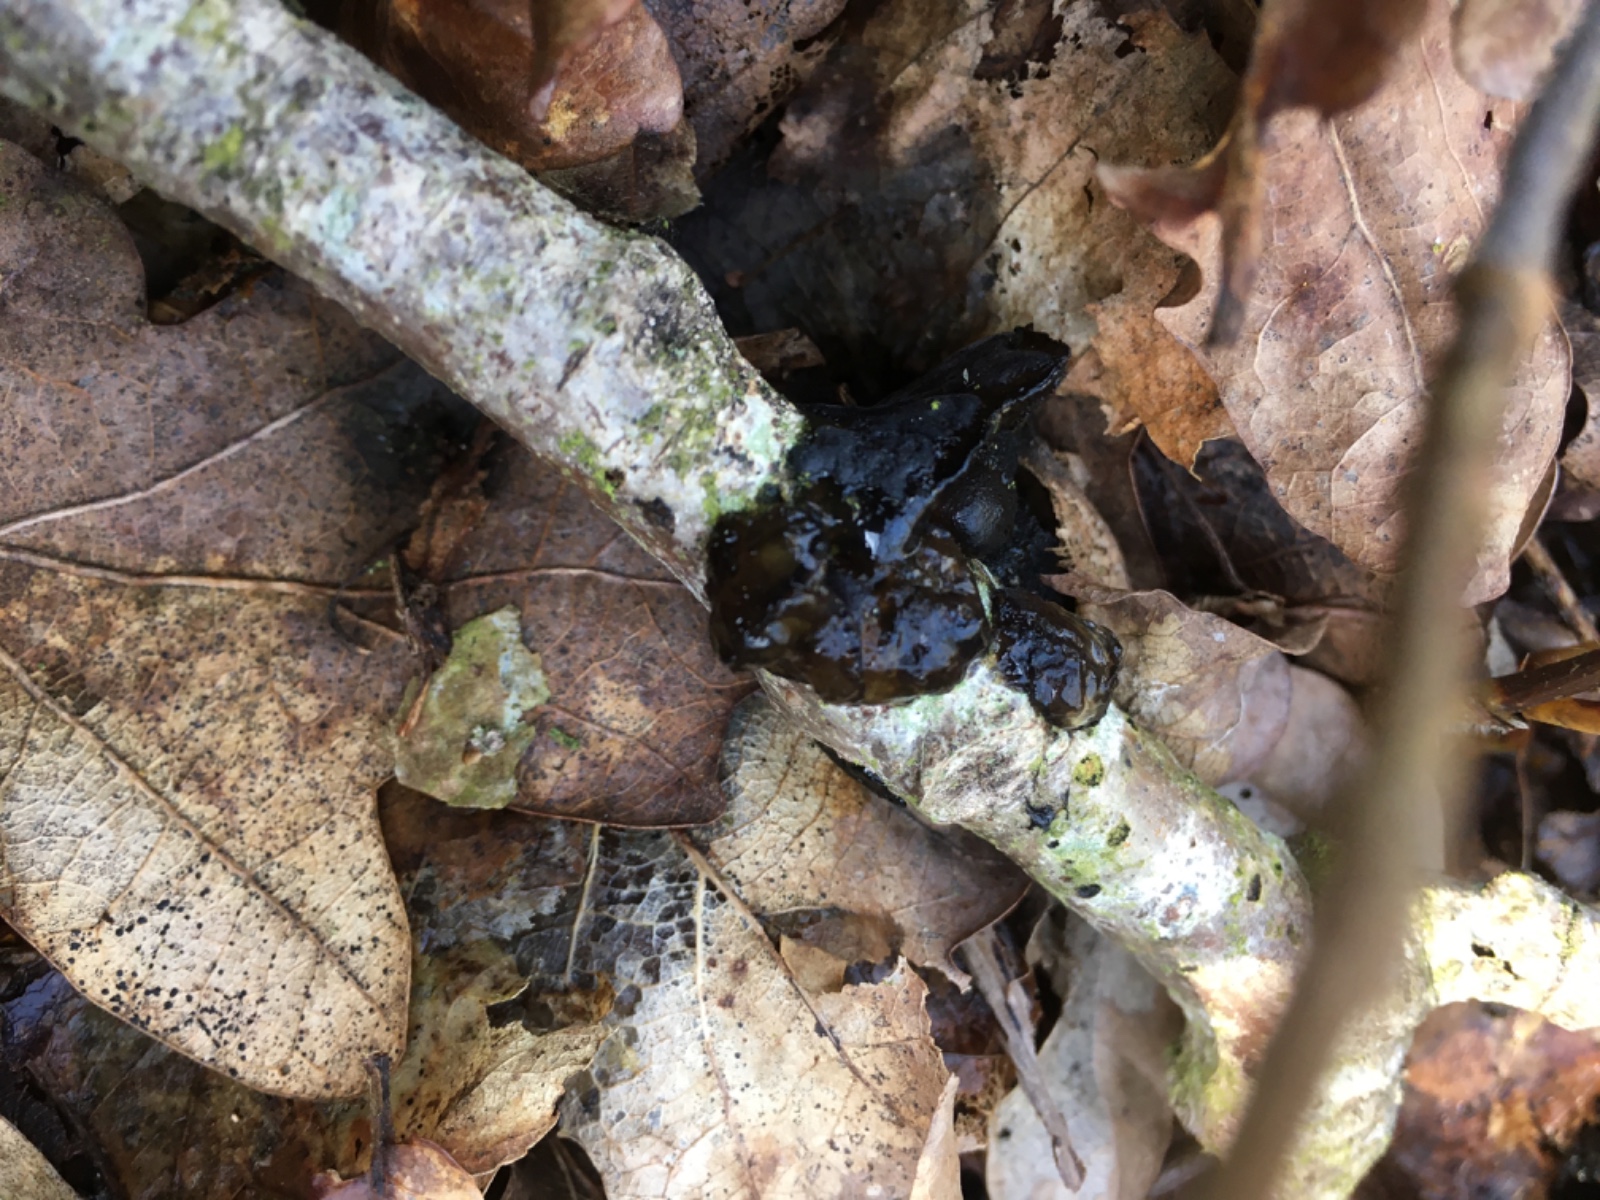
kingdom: Fungi
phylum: Basidiomycota
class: Agaricomycetes
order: Auriculariales
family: Auriculariaceae
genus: Exidia
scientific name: Exidia glandulosa
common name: ege-bævretop
